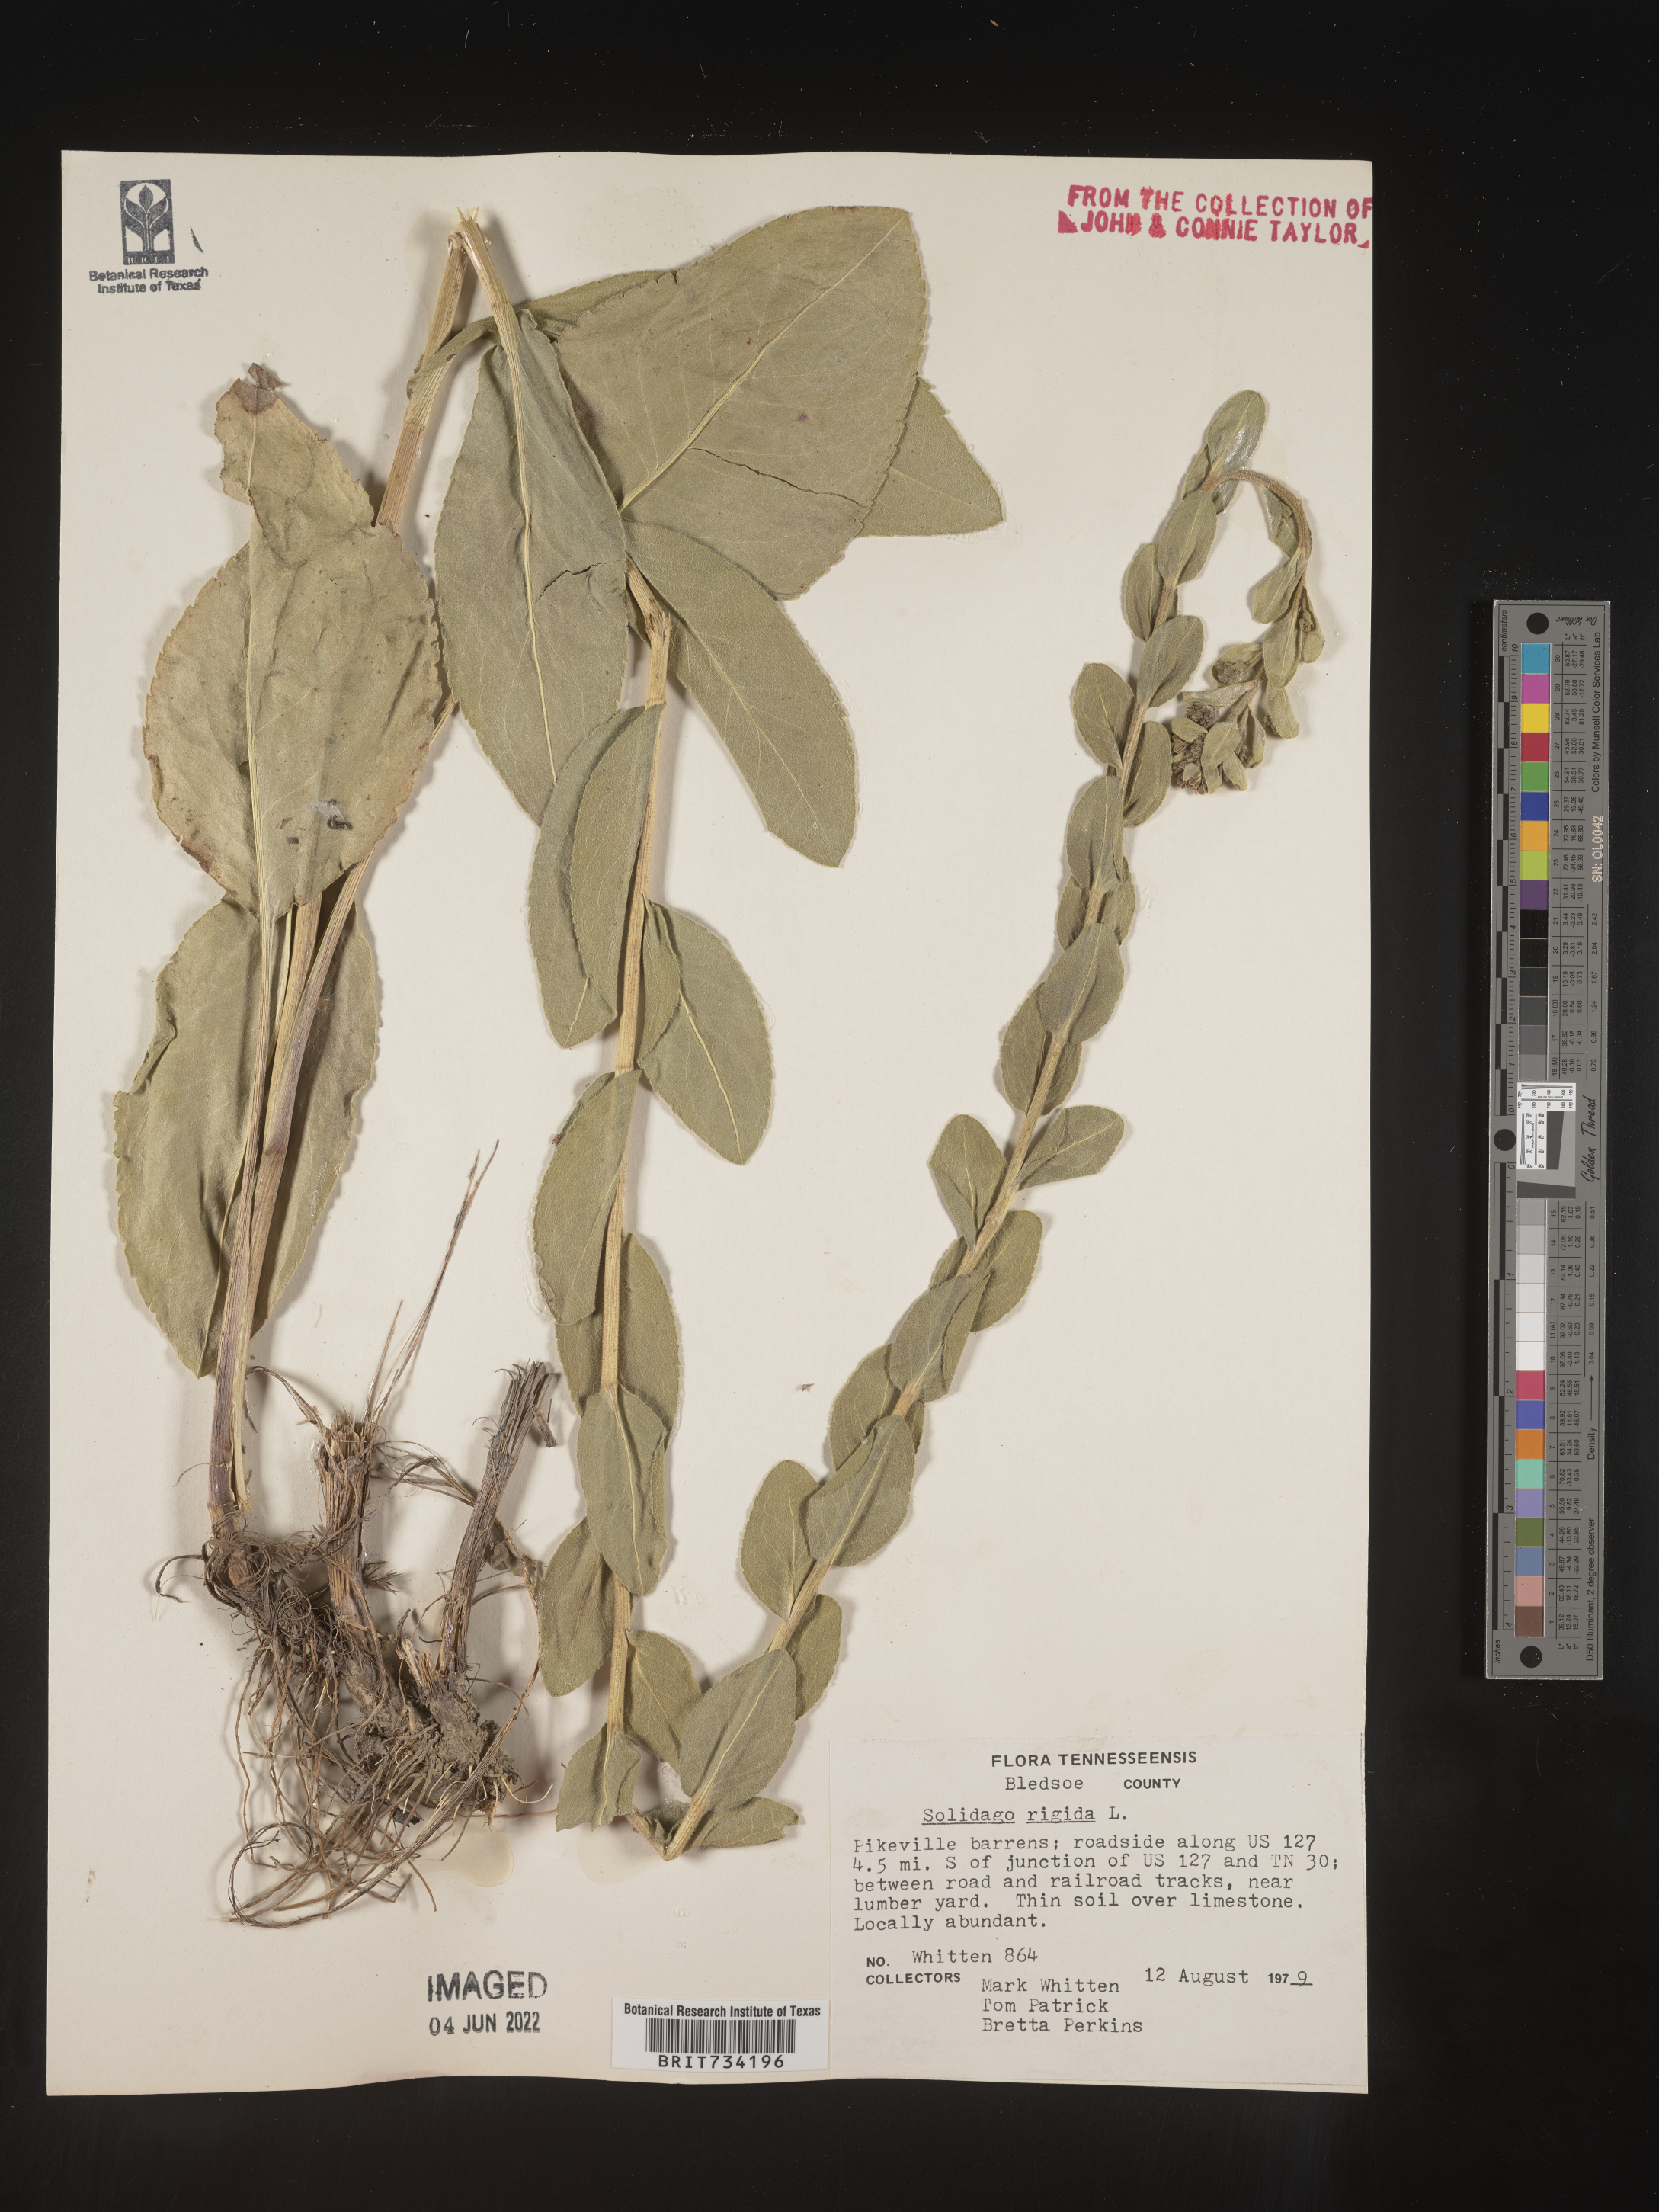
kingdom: Plantae
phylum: Tracheophyta
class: Magnoliopsida
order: Asterales
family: Asteraceae
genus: Solidago
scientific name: Solidago rigida
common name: Rigid goldenrod
